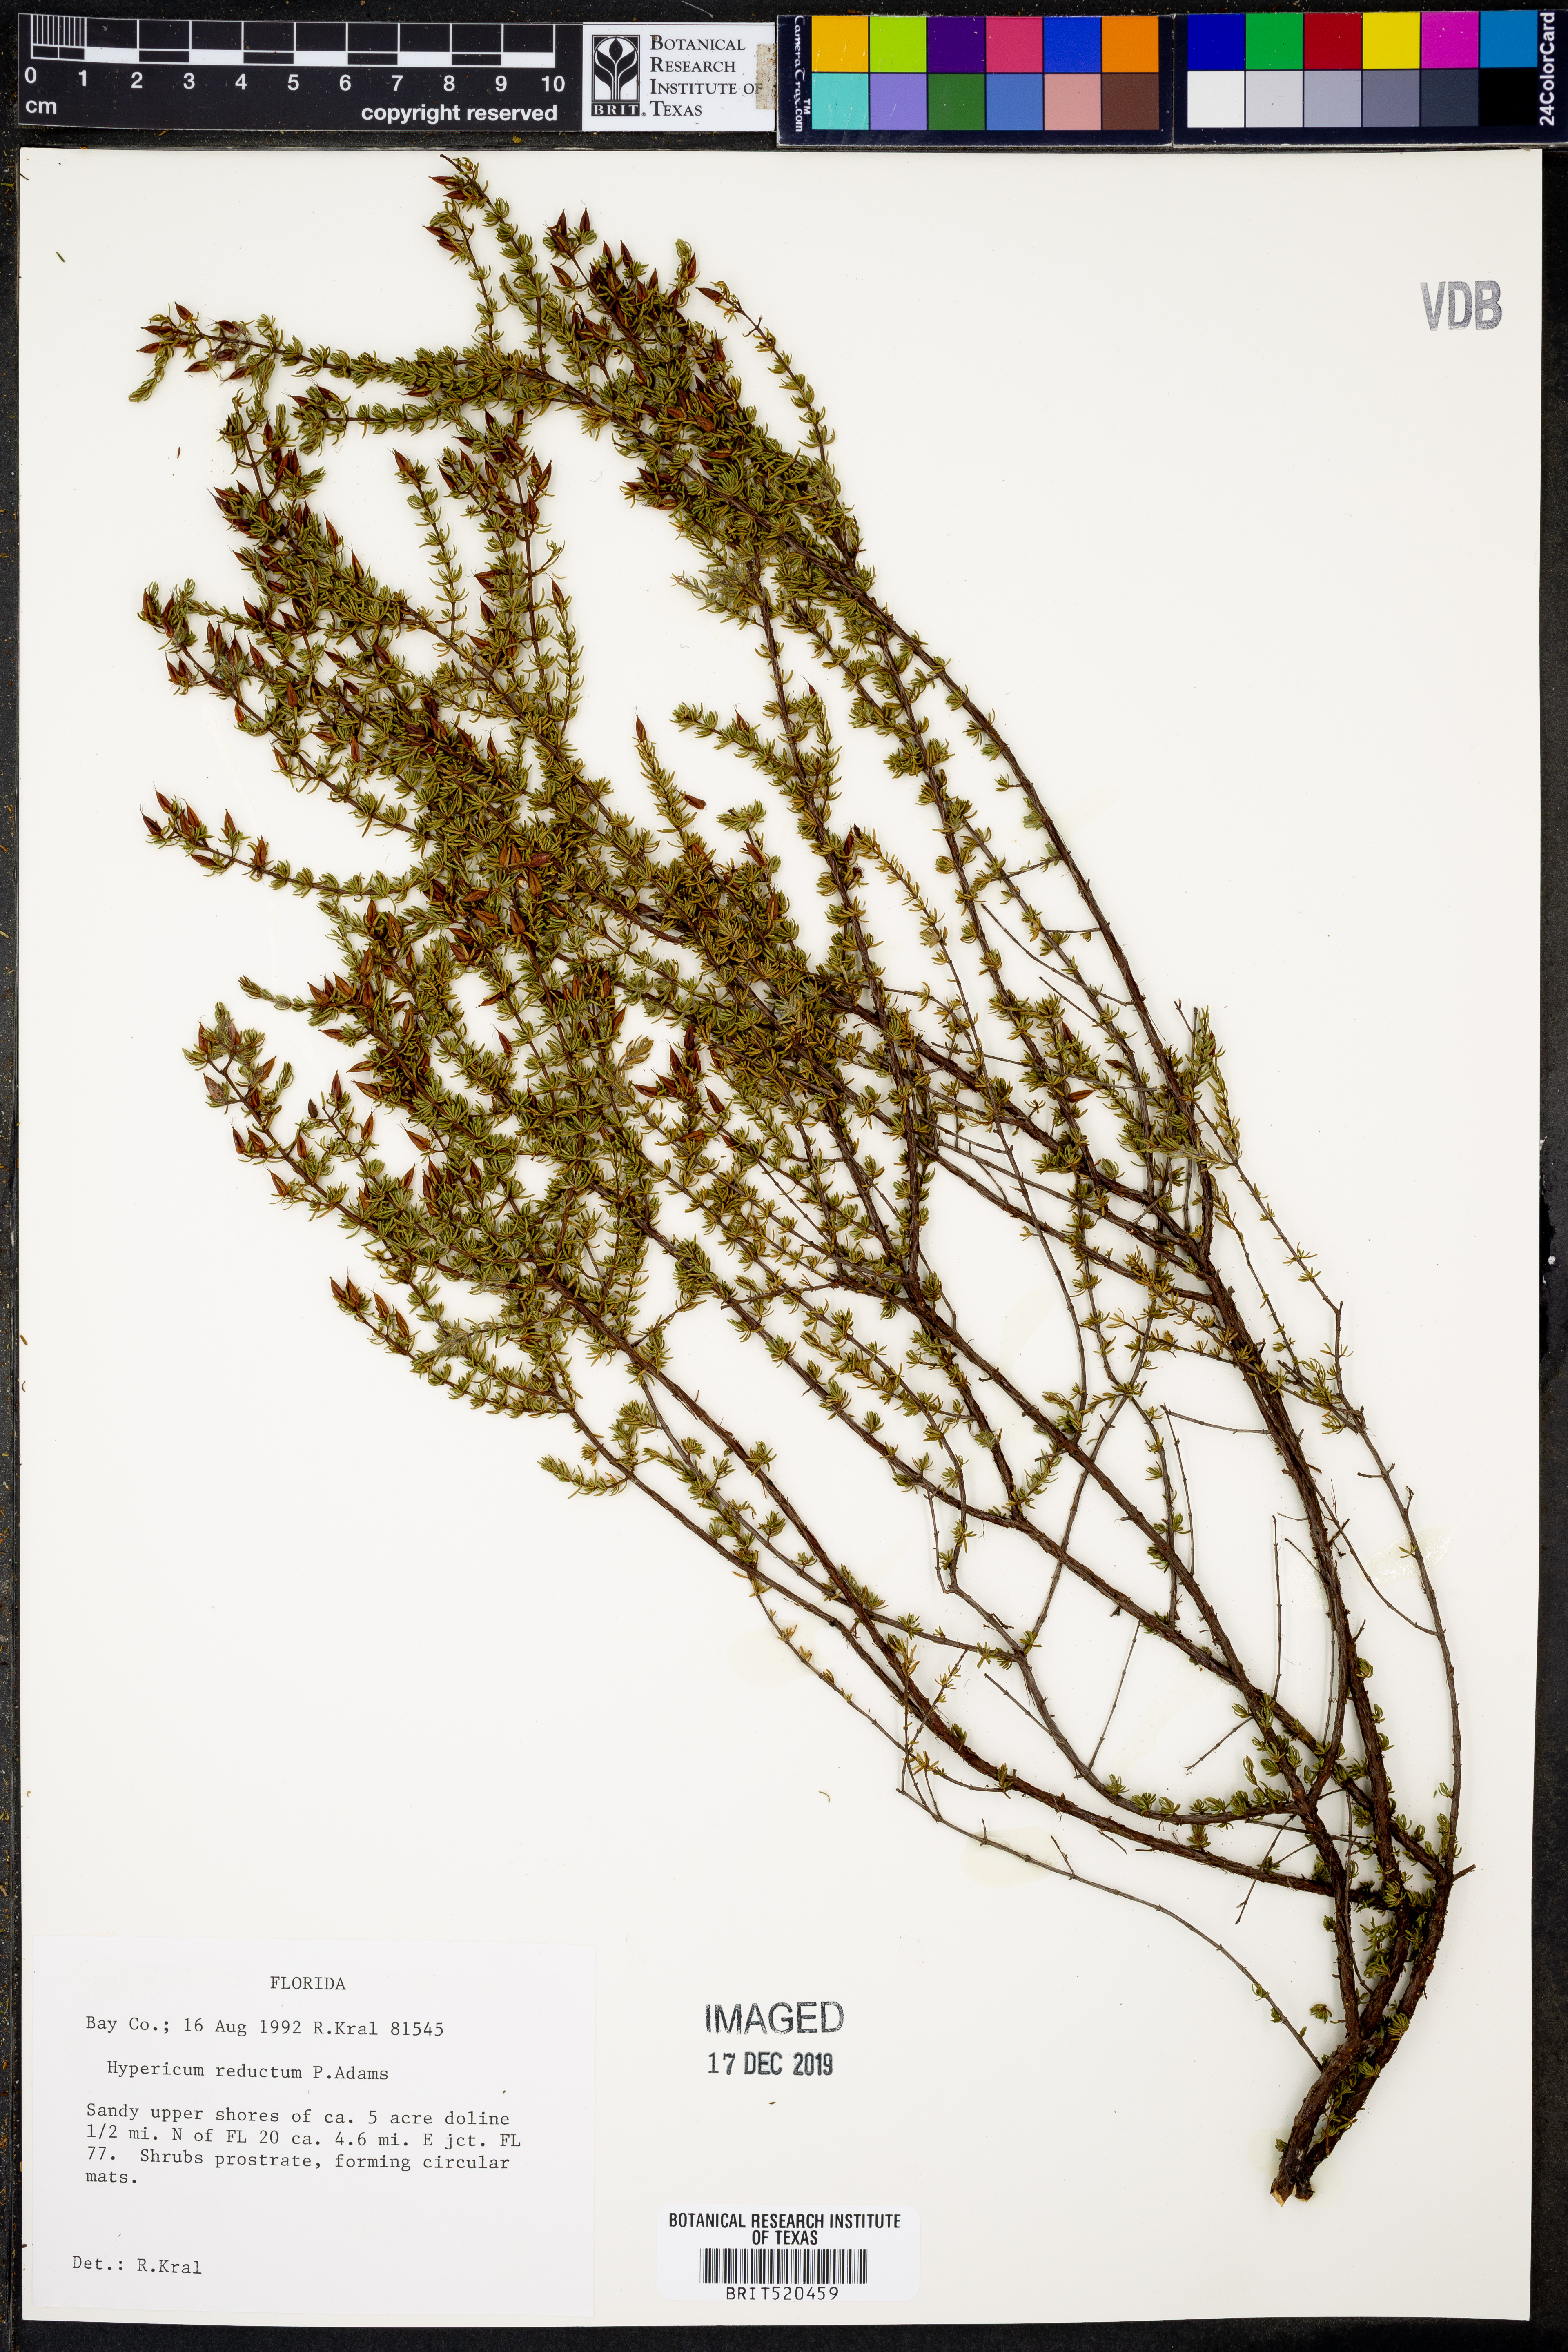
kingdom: Plantae
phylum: Tracheophyta
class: Magnoliopsida
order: Malpighiales
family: Hypericaceae
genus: Hypericum
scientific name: Hypericum tenuifolium
